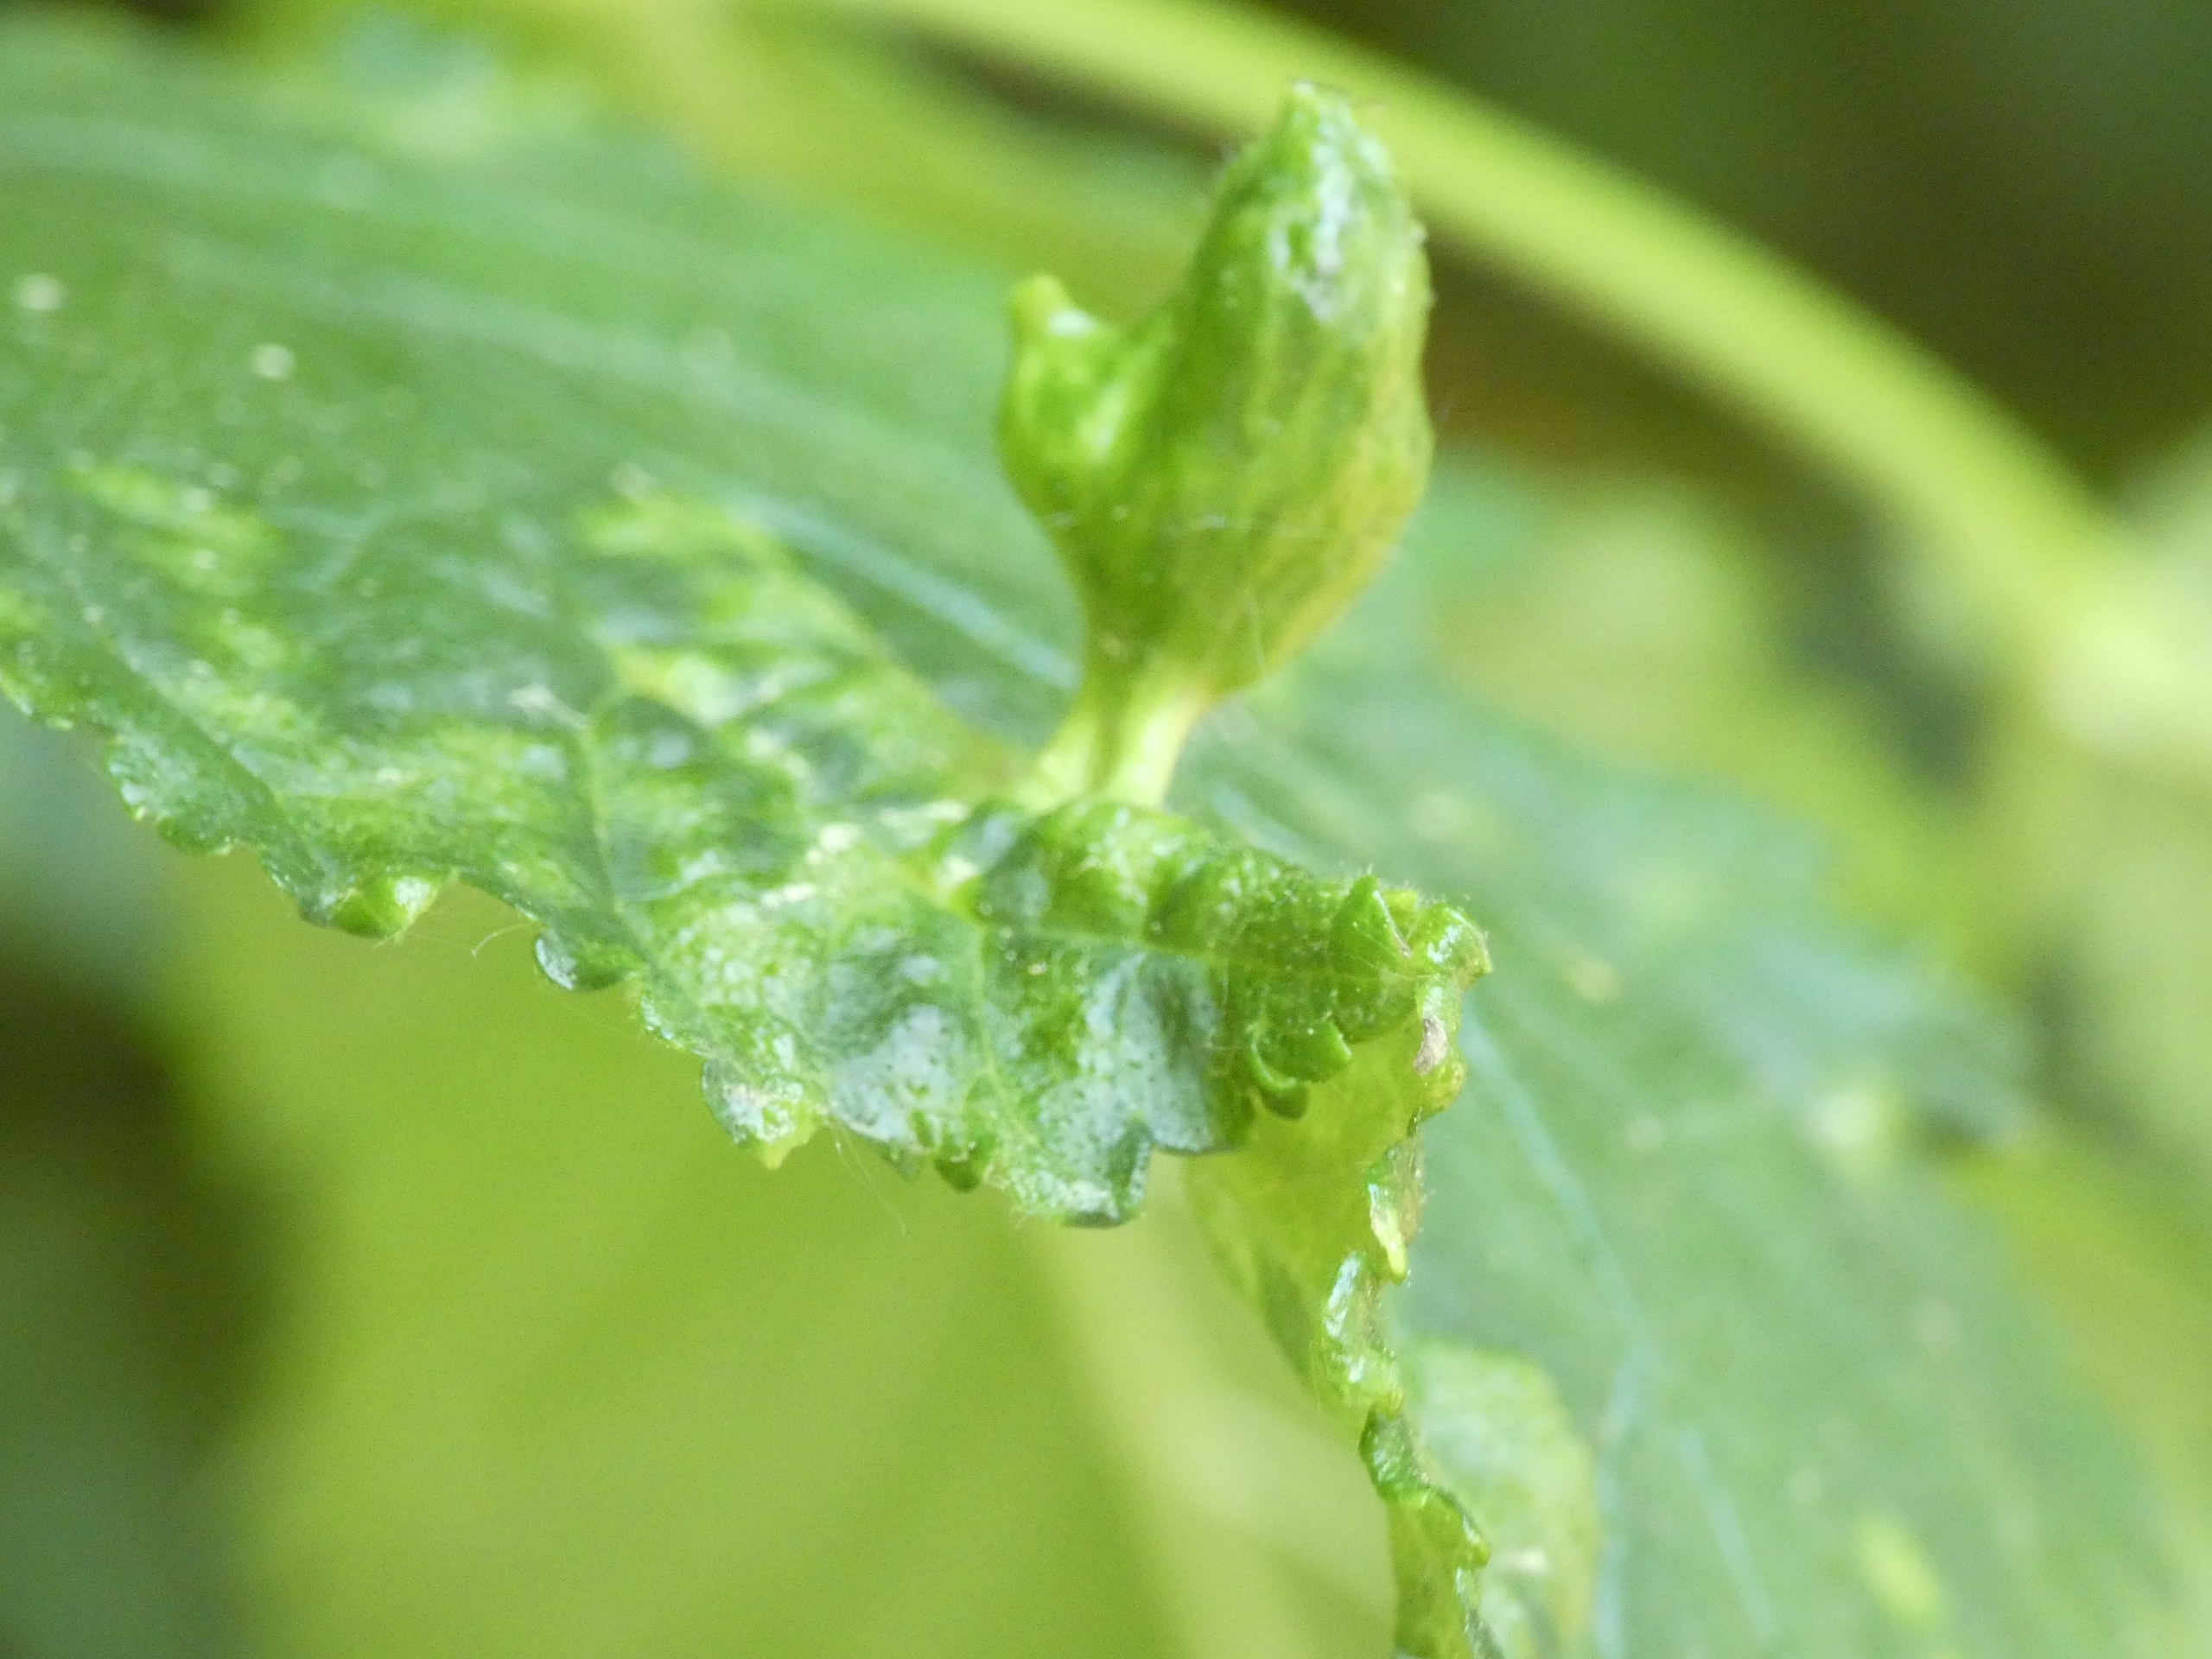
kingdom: Animalia
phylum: Arthropoda
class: Insecta
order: Hemiptera
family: Aphididae
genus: Tetraneura
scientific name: Tetraneura ulmi
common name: Elmegallelus
